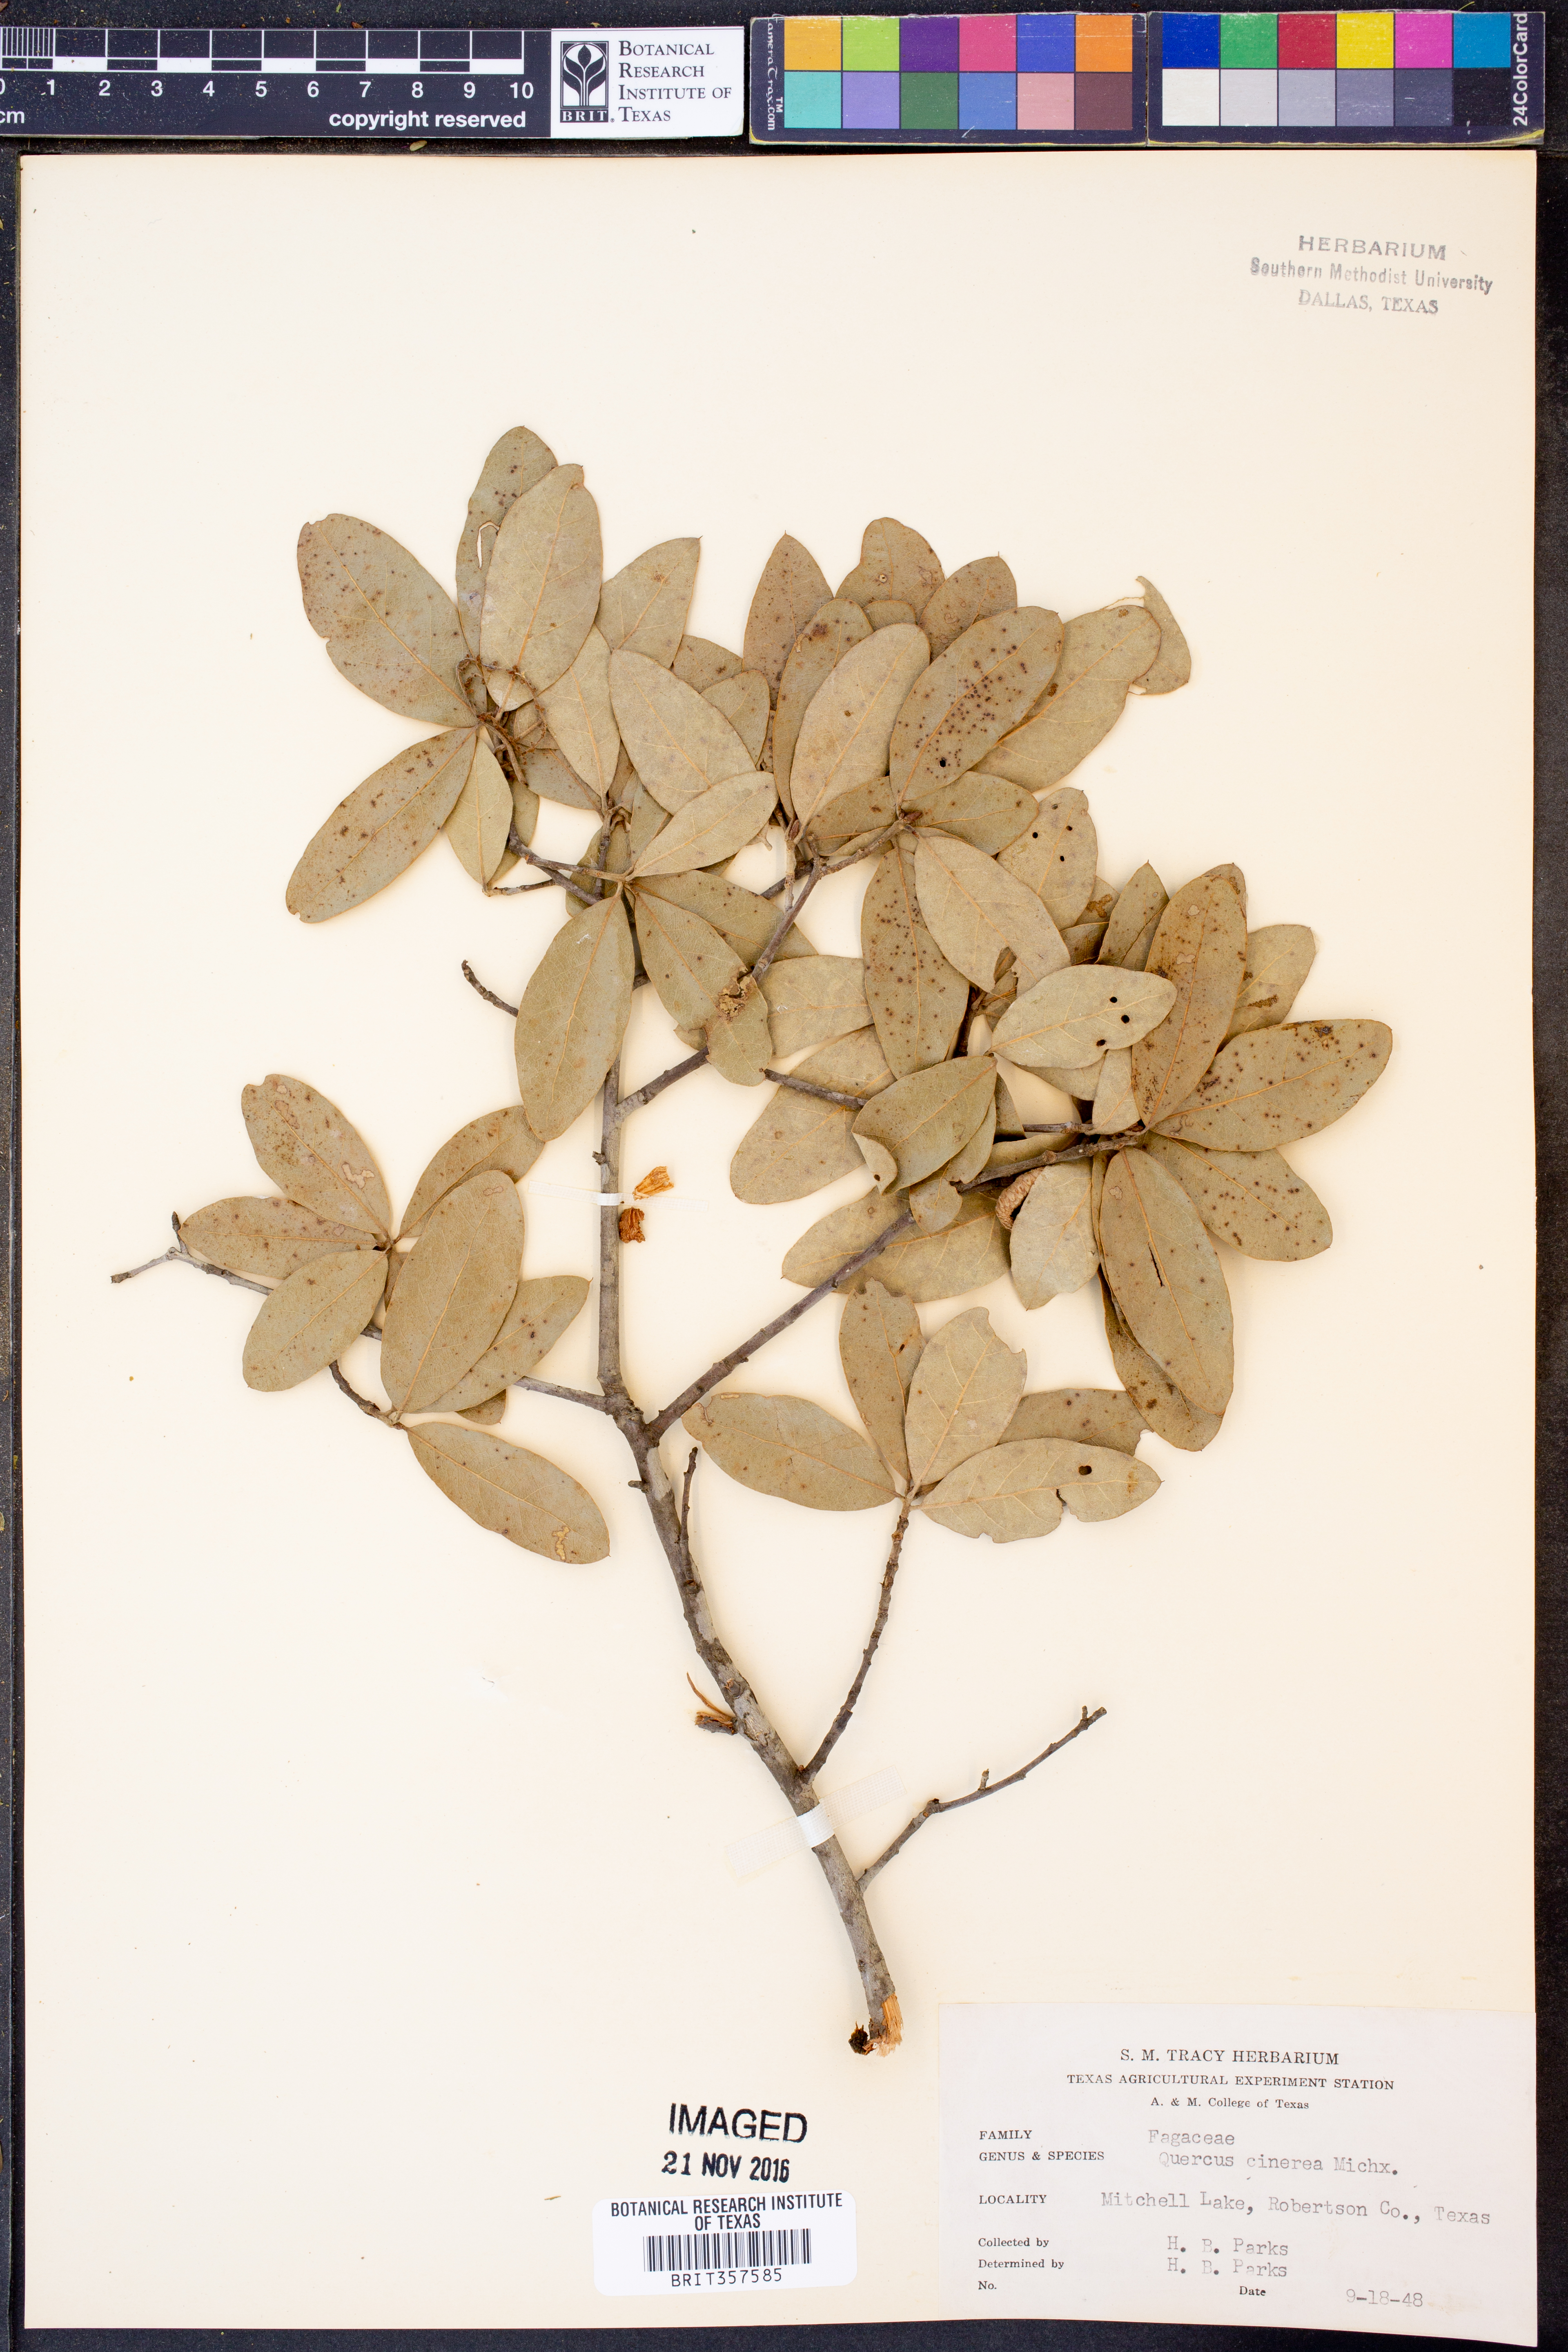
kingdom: Plantae
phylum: Tracheophyta
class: Magnoliopsida
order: Fagales
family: Fagaceae
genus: Quercus
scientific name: Quercus incana
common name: Bluejack oak
